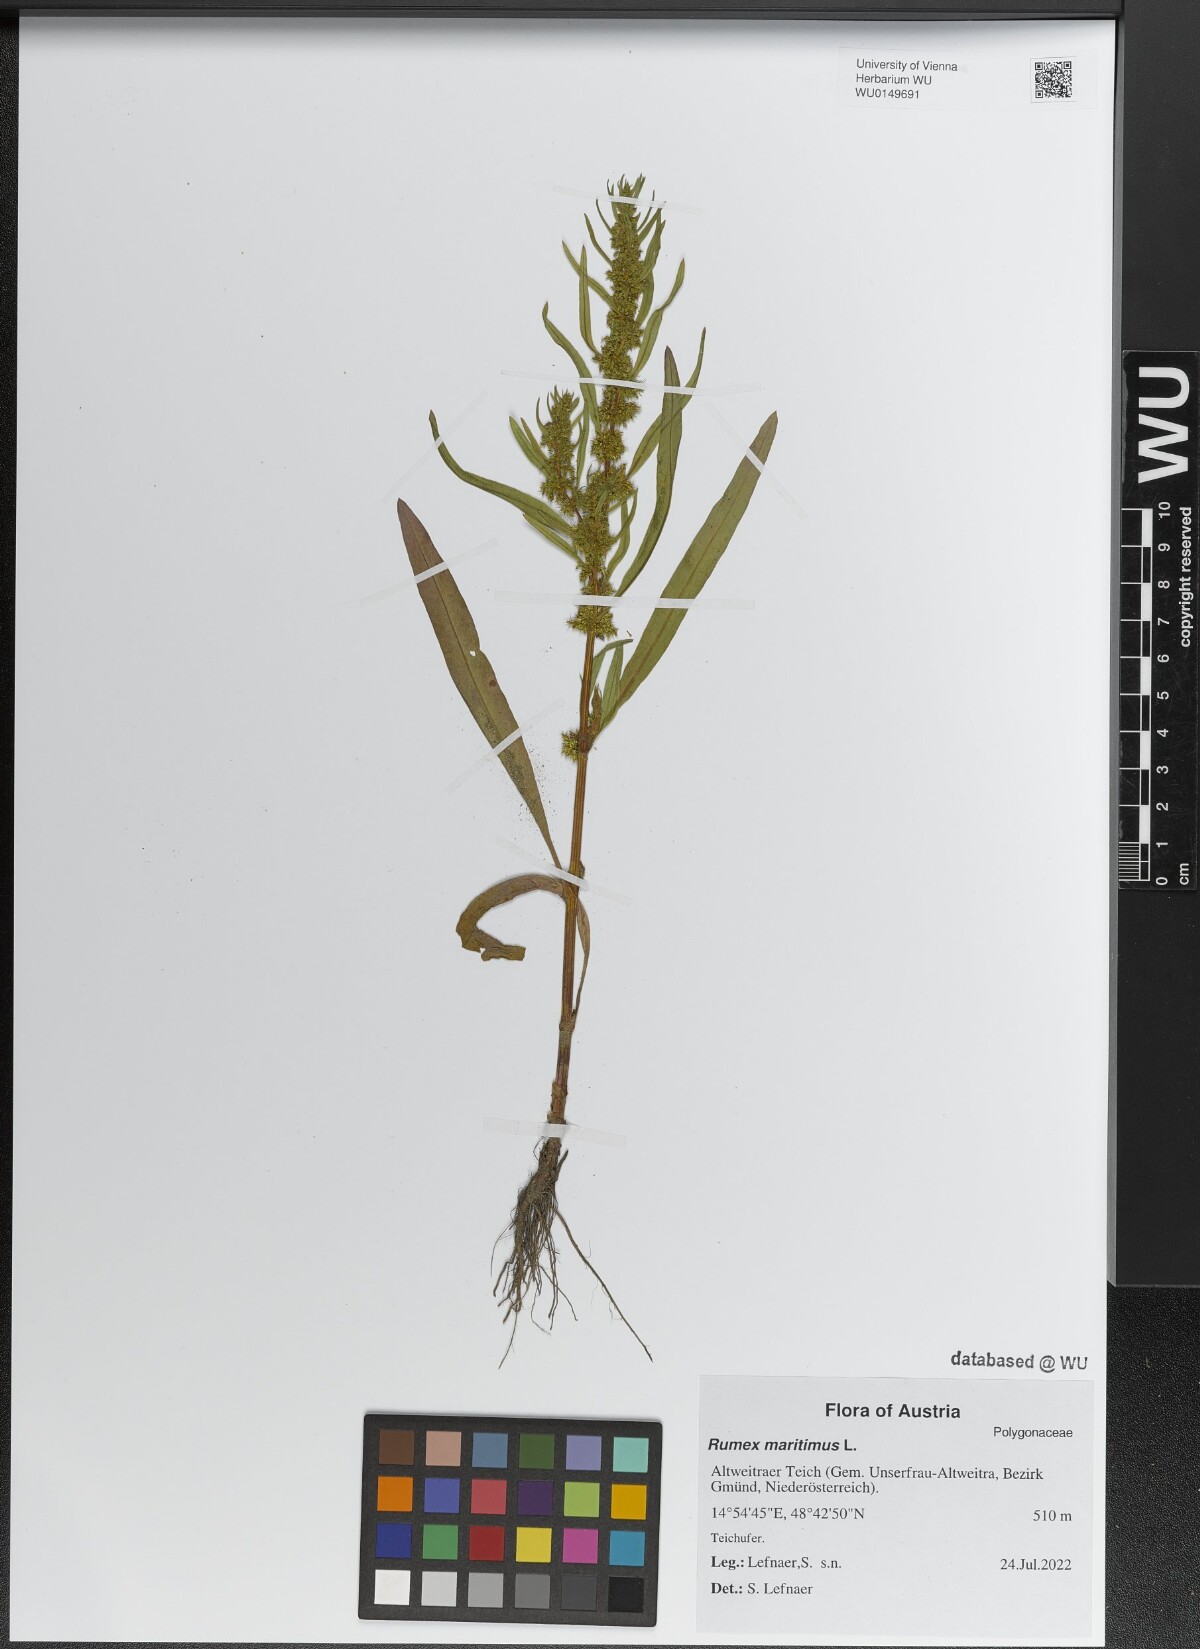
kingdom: Plantae
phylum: Tracheophyta
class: Magnoliopsida
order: Caryophyllales
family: Polygonaceae
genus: Rumex
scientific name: Rumex maritimus
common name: Golden dock
